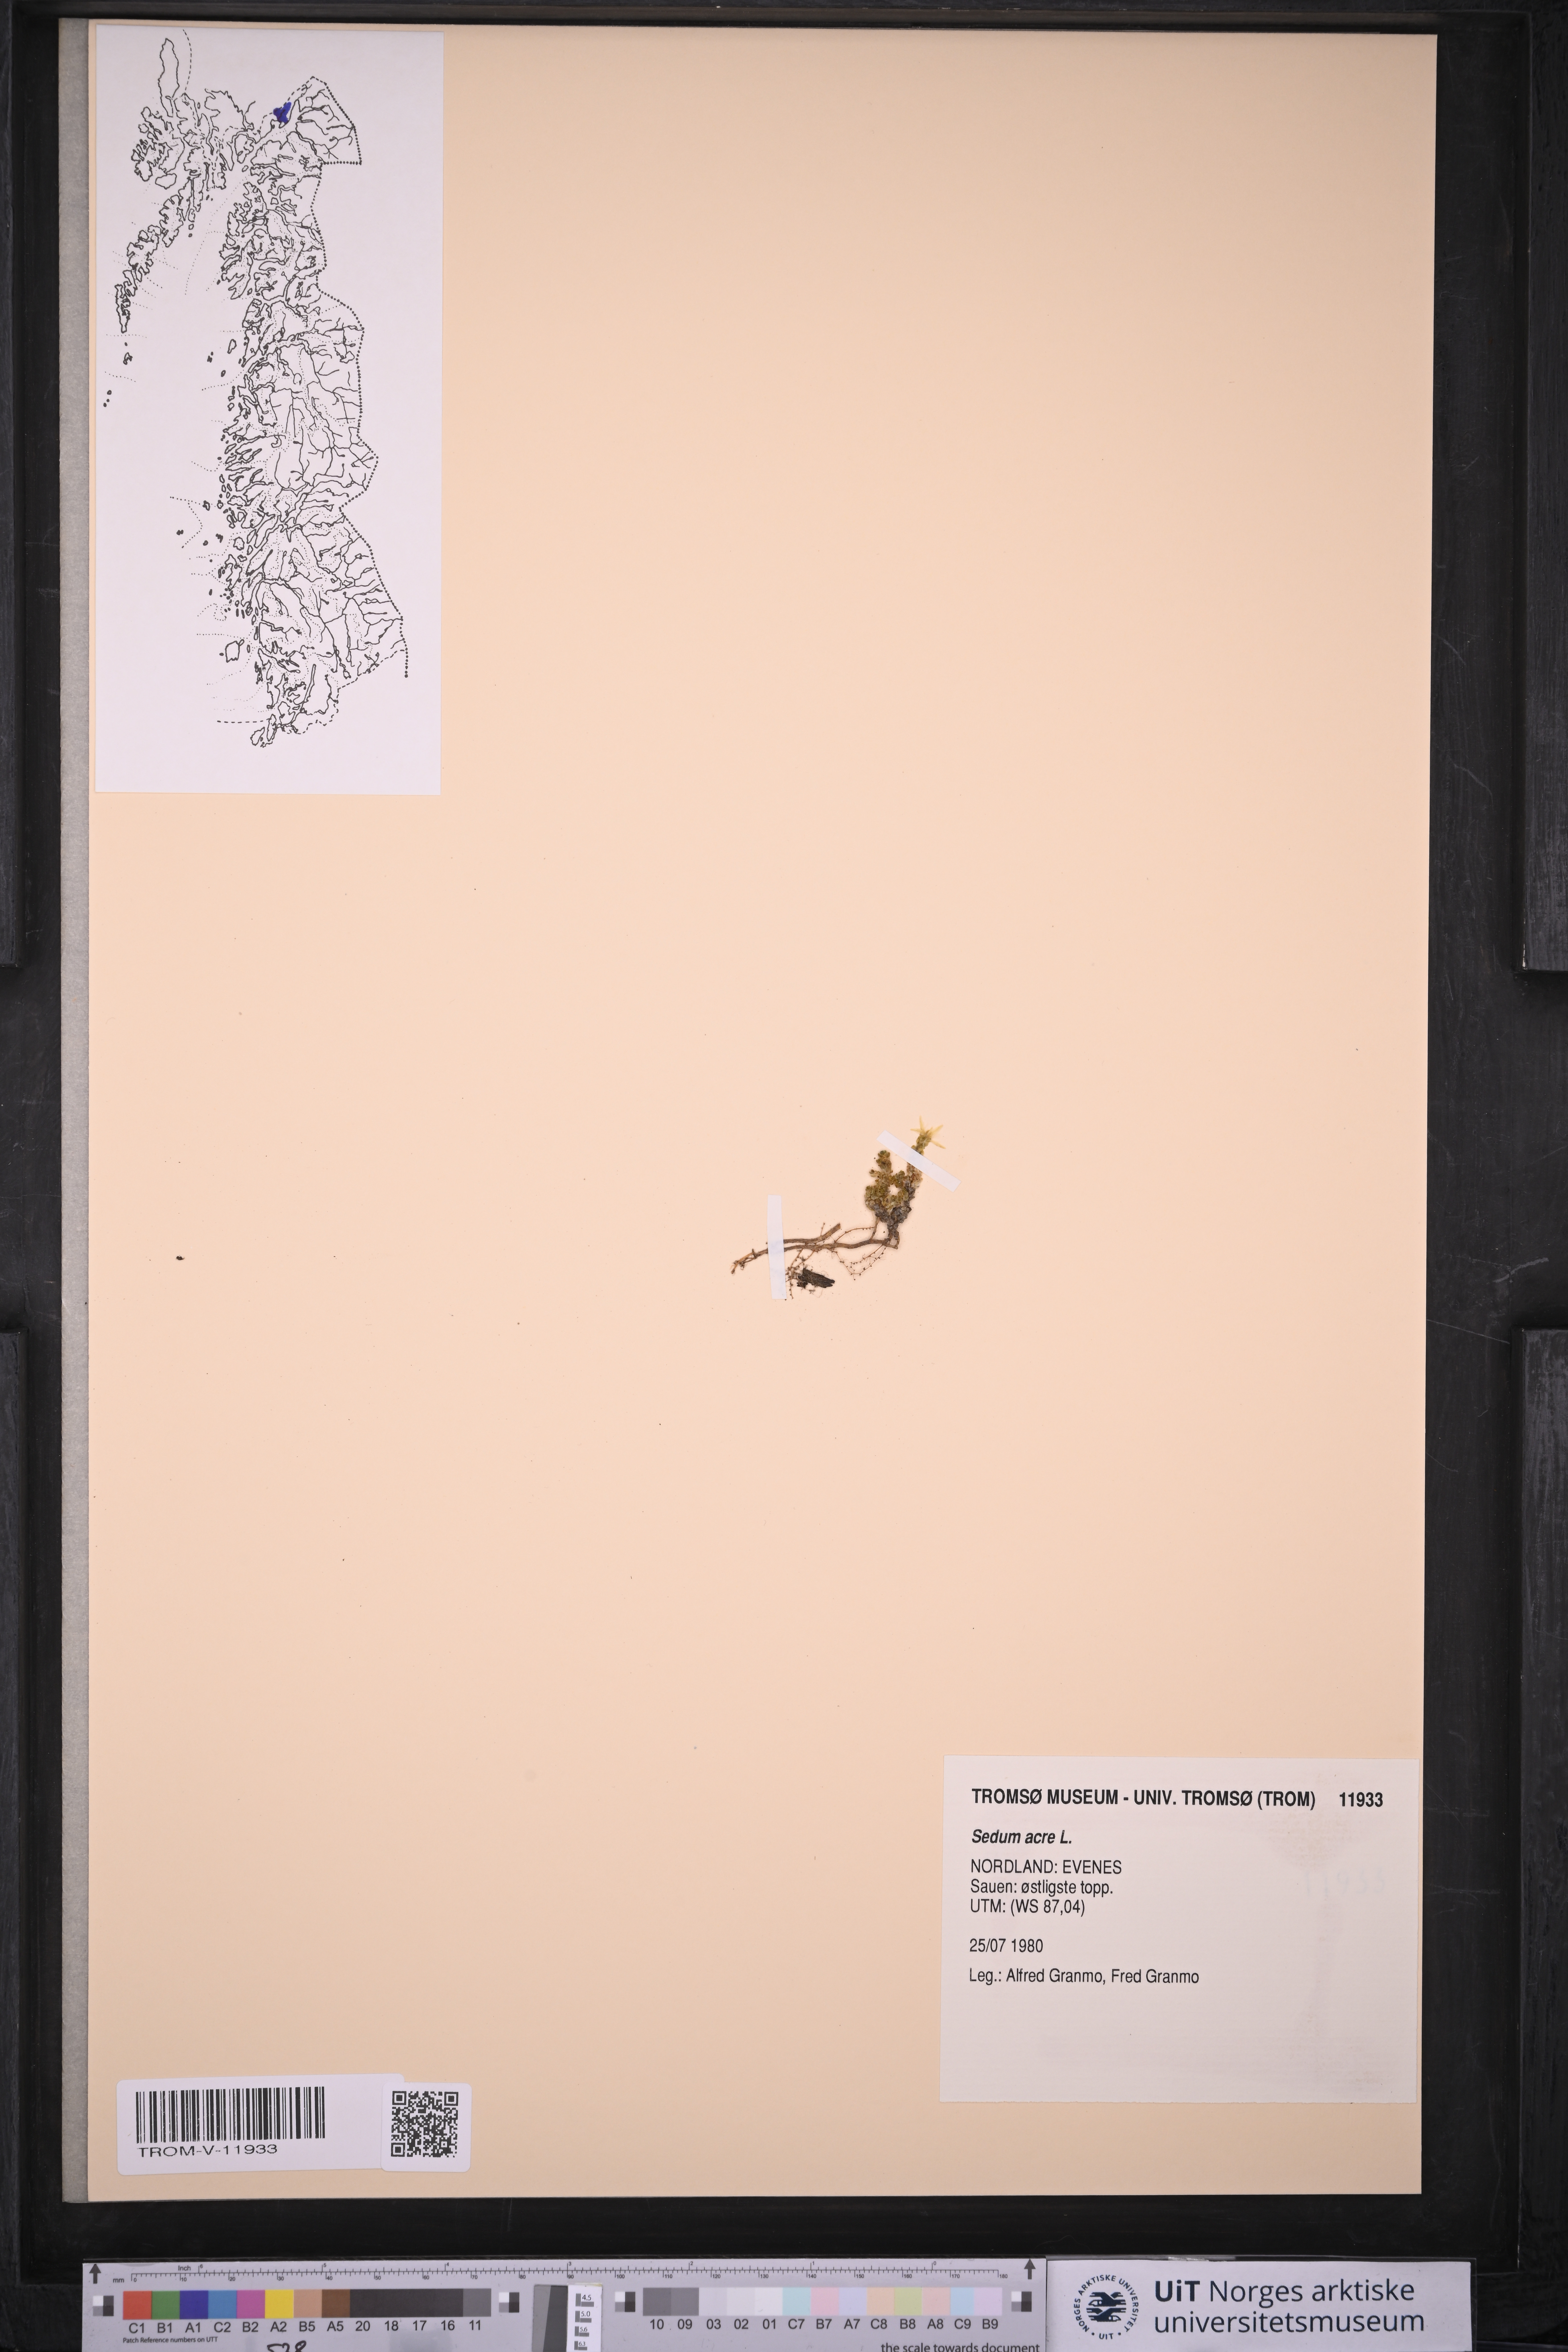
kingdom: Plantae
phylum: Tracheophyta
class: Magnoliopsida
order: Saxifragales
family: Crassulaceae
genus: Sedum
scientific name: Sedum acre
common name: Biting stonecrop
